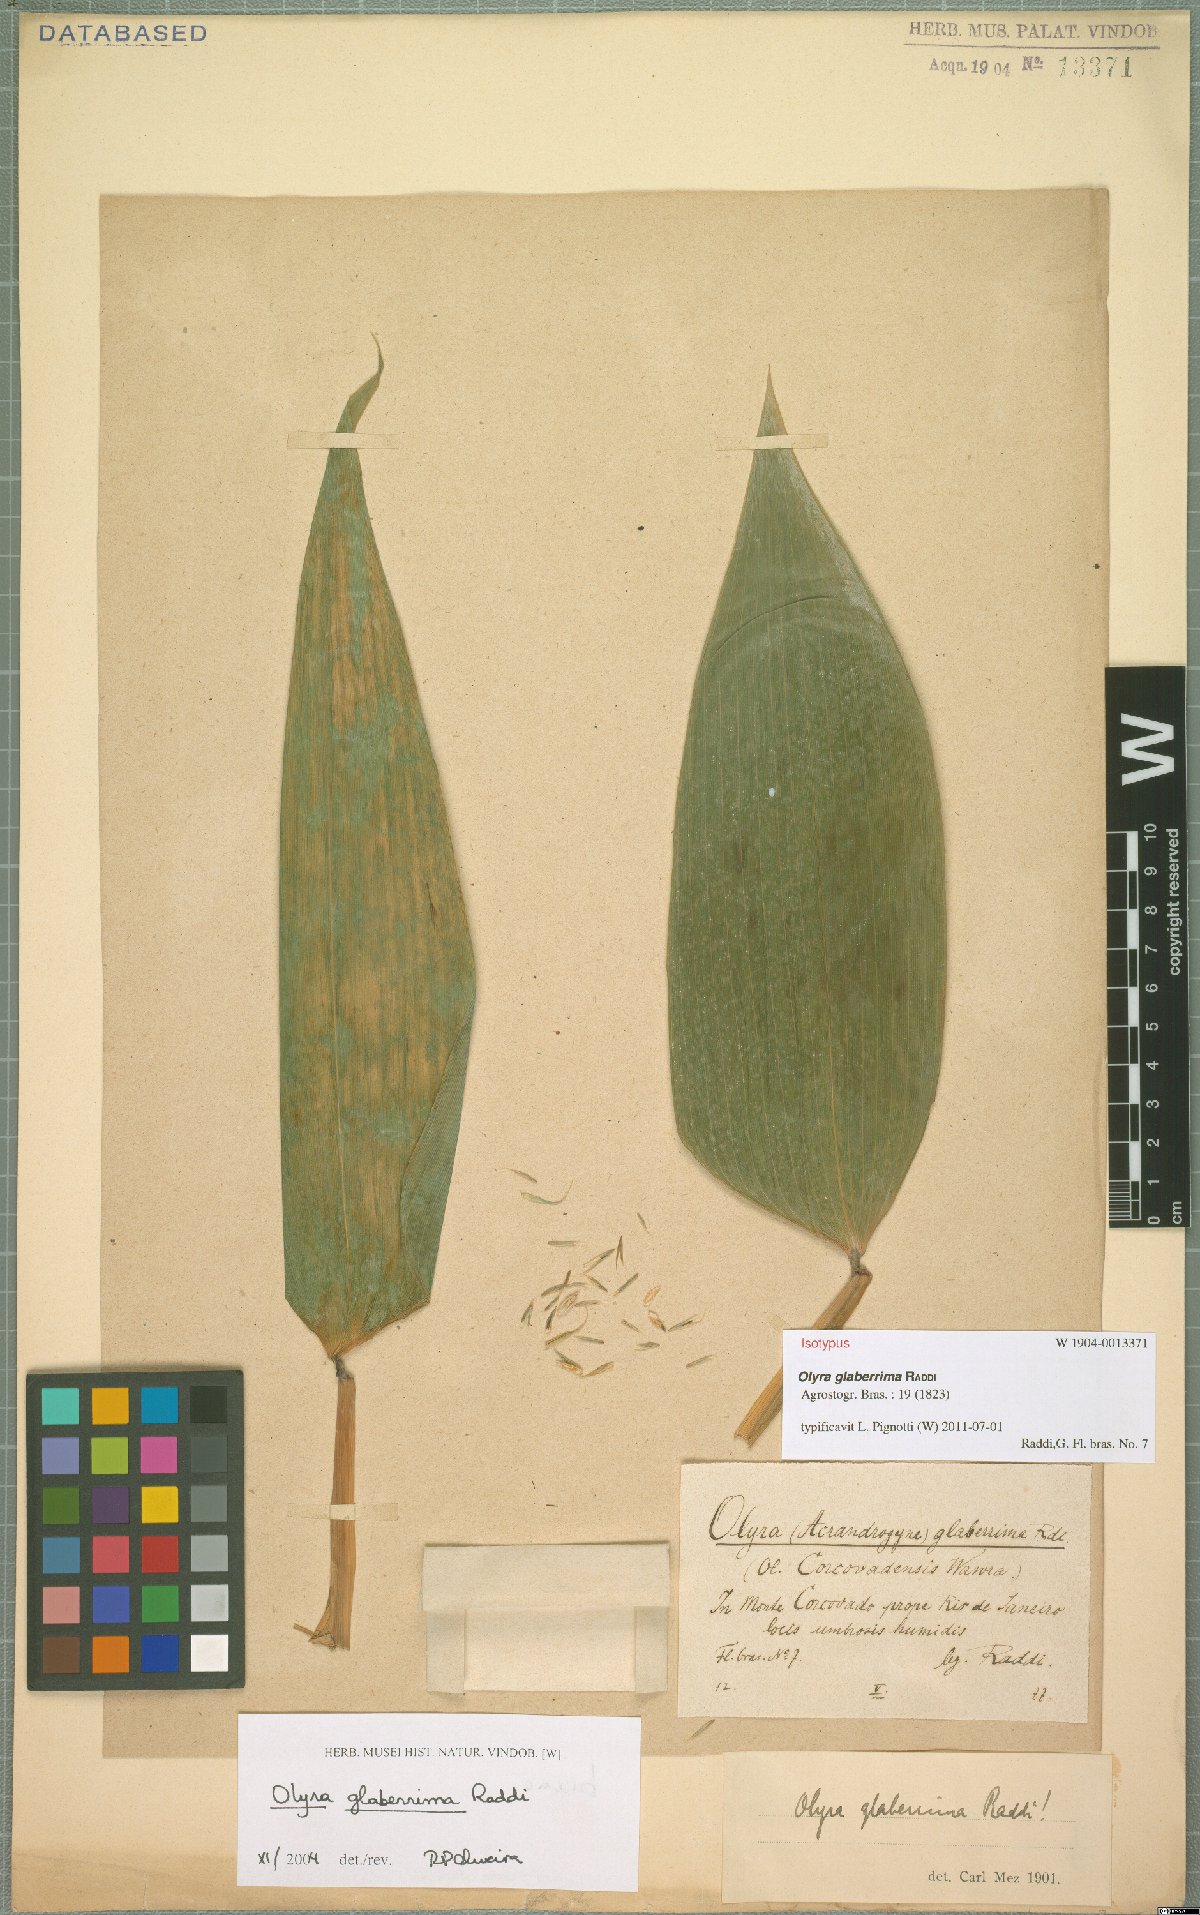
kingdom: Plantae
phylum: Tracheophyta
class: Liliopsida
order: Poales
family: Poaceae
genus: Olyra
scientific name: Olyra glaberrima
